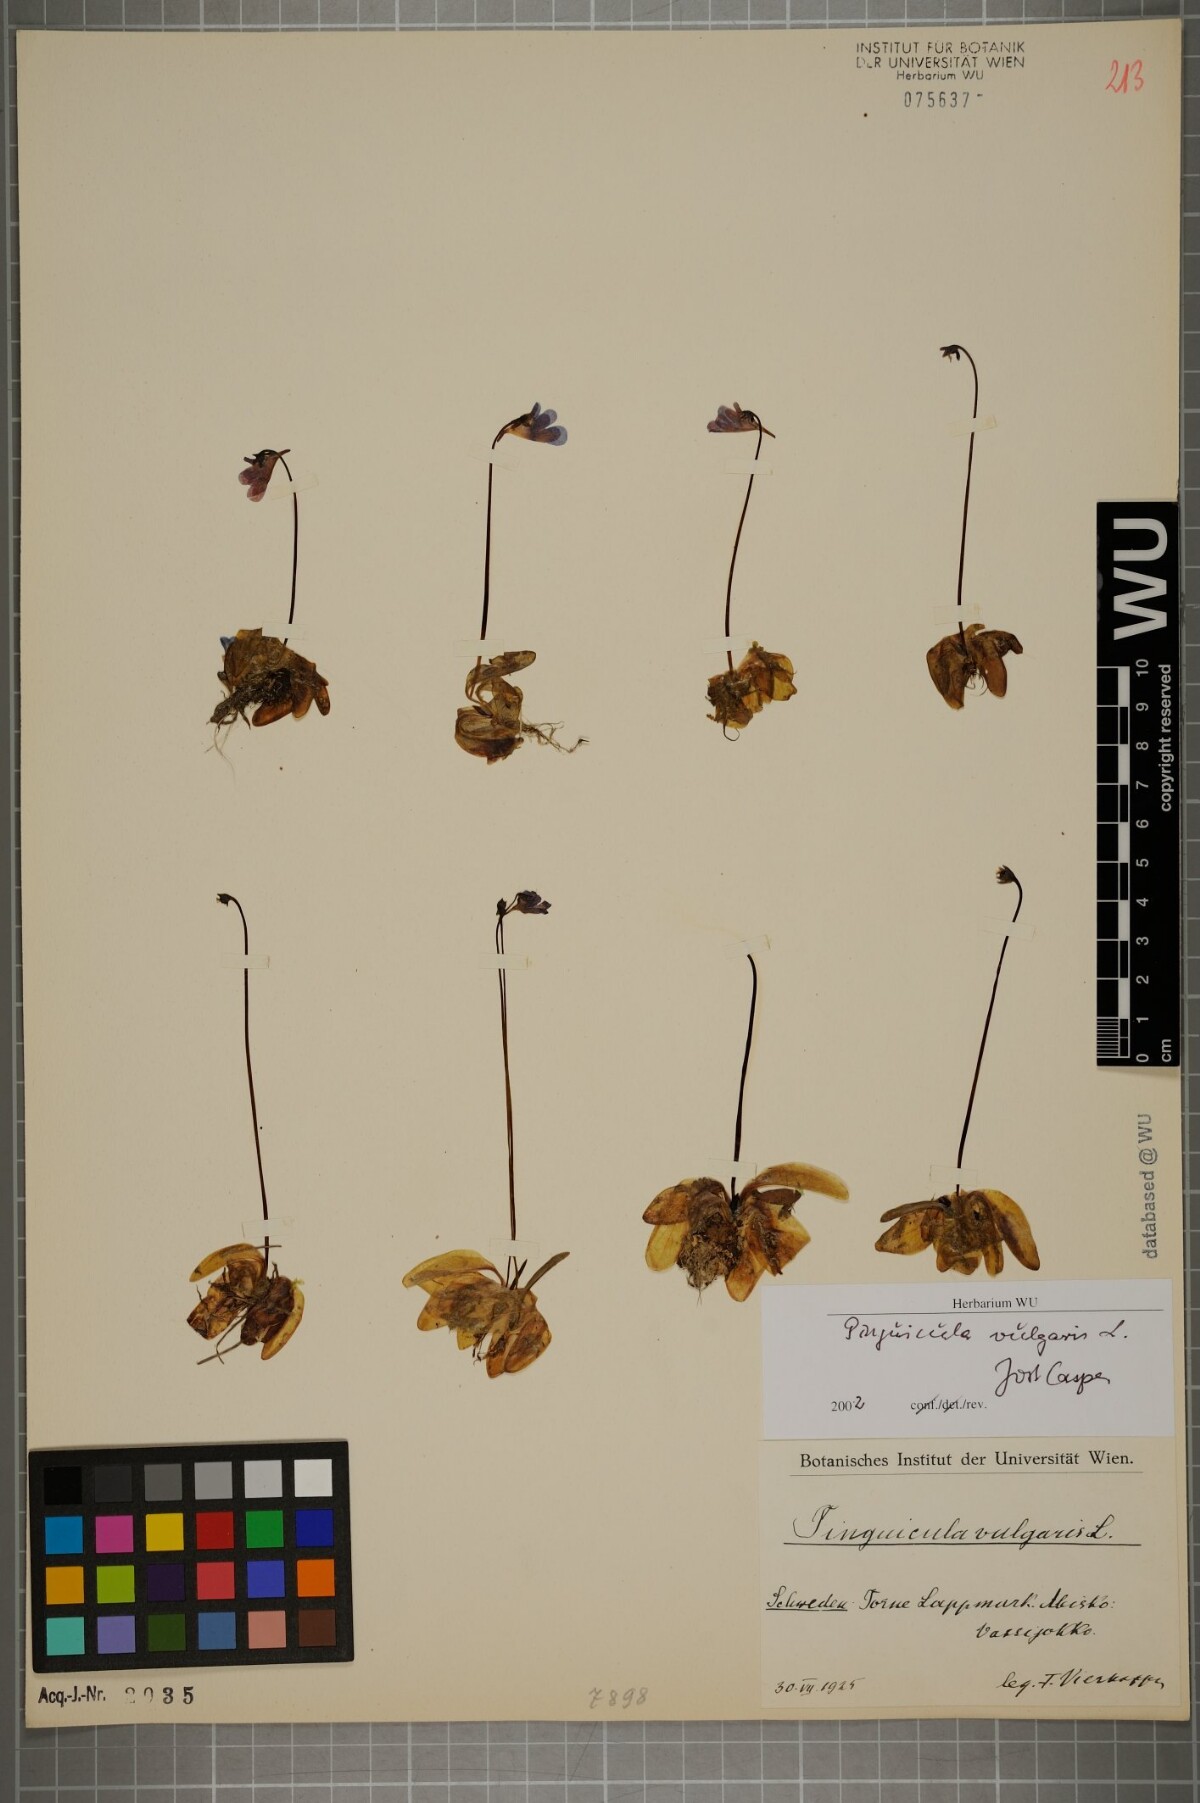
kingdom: Plantae
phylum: Tracheophyta
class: Magnoliopsida
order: Lamiales
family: Lentibulariaceae
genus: Pinguicula
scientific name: Pinguicula vulgaris
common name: Common butterwort
